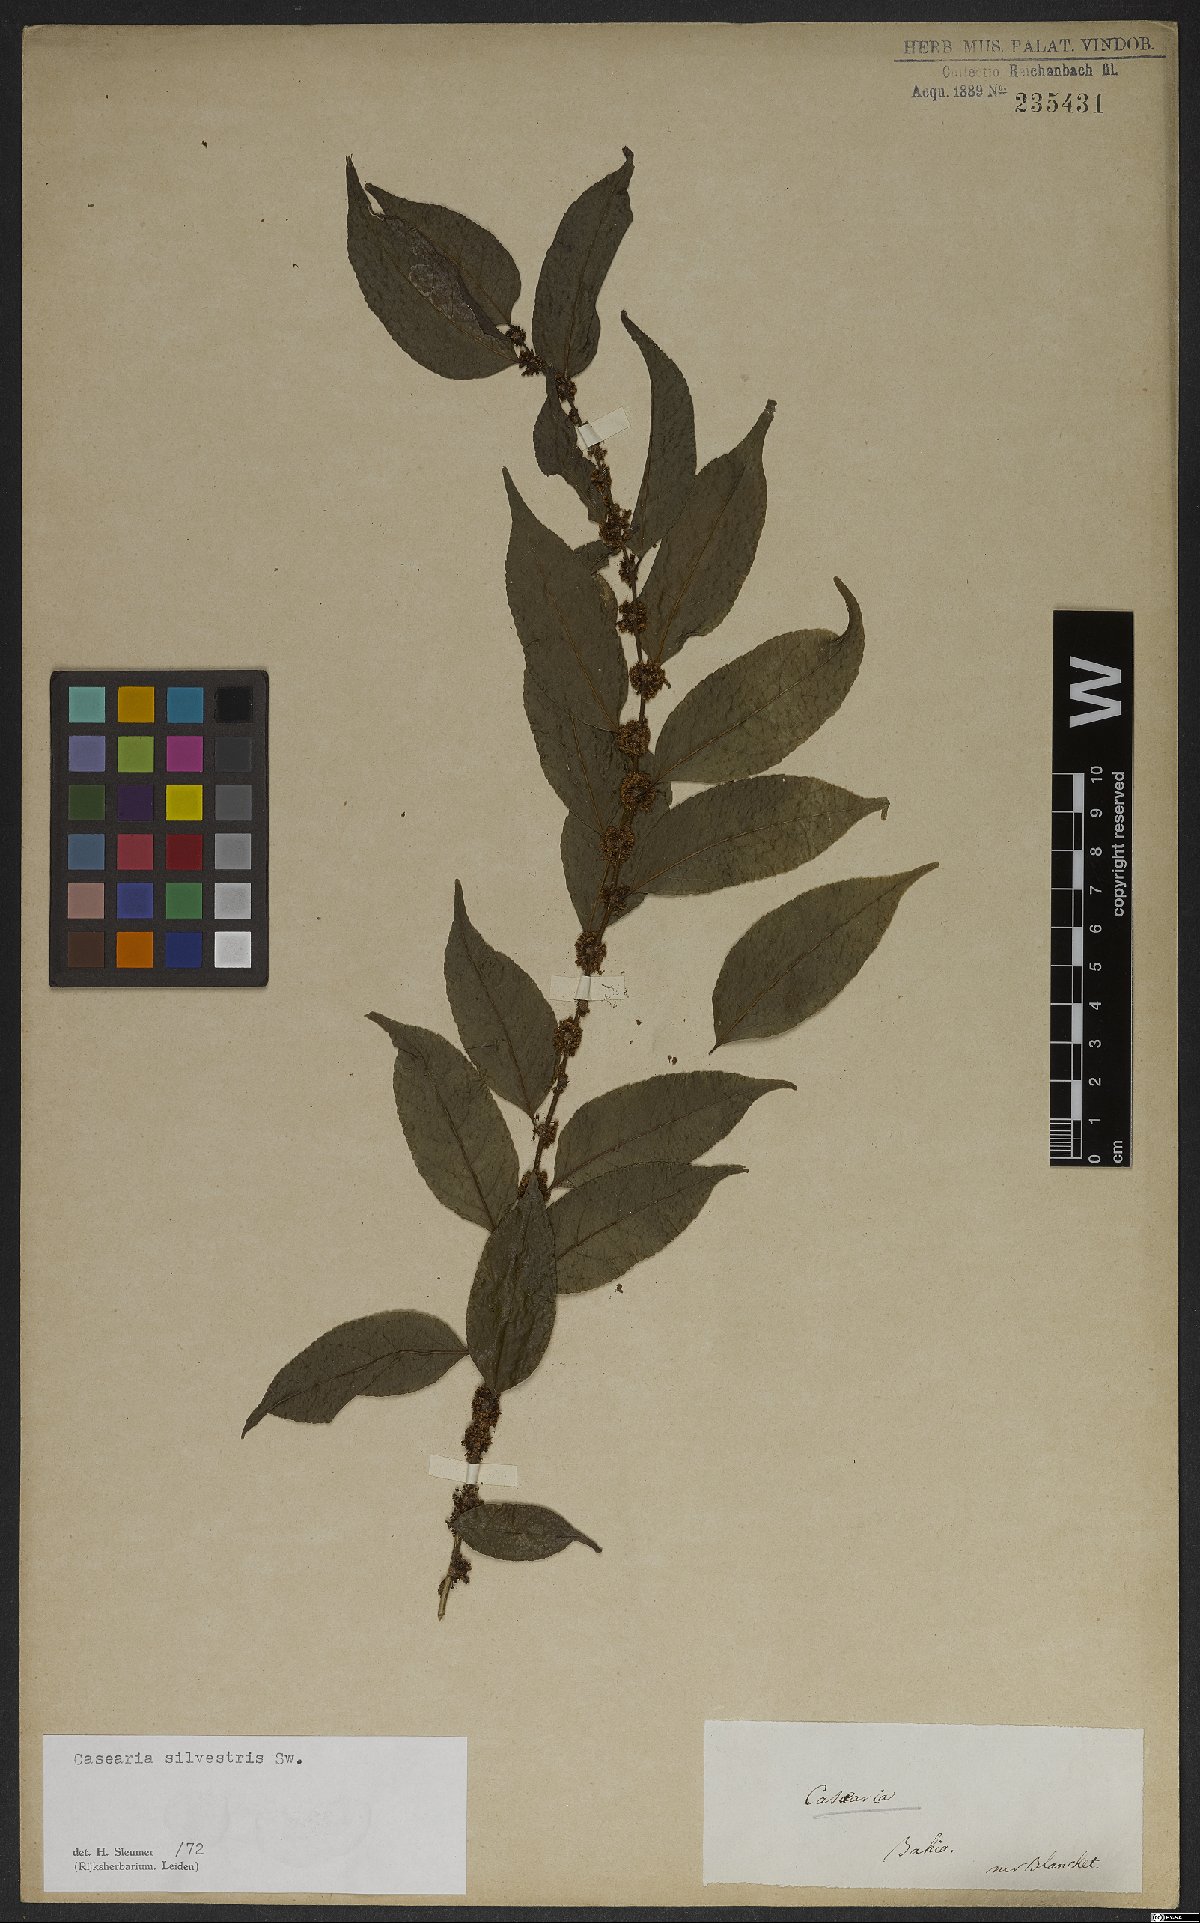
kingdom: Plantae
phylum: Tracheophyta
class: Magnoliopsida
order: Malpighiales
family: Salicaceae
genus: Casearia
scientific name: Casearia sylvestris
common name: Wild sage
